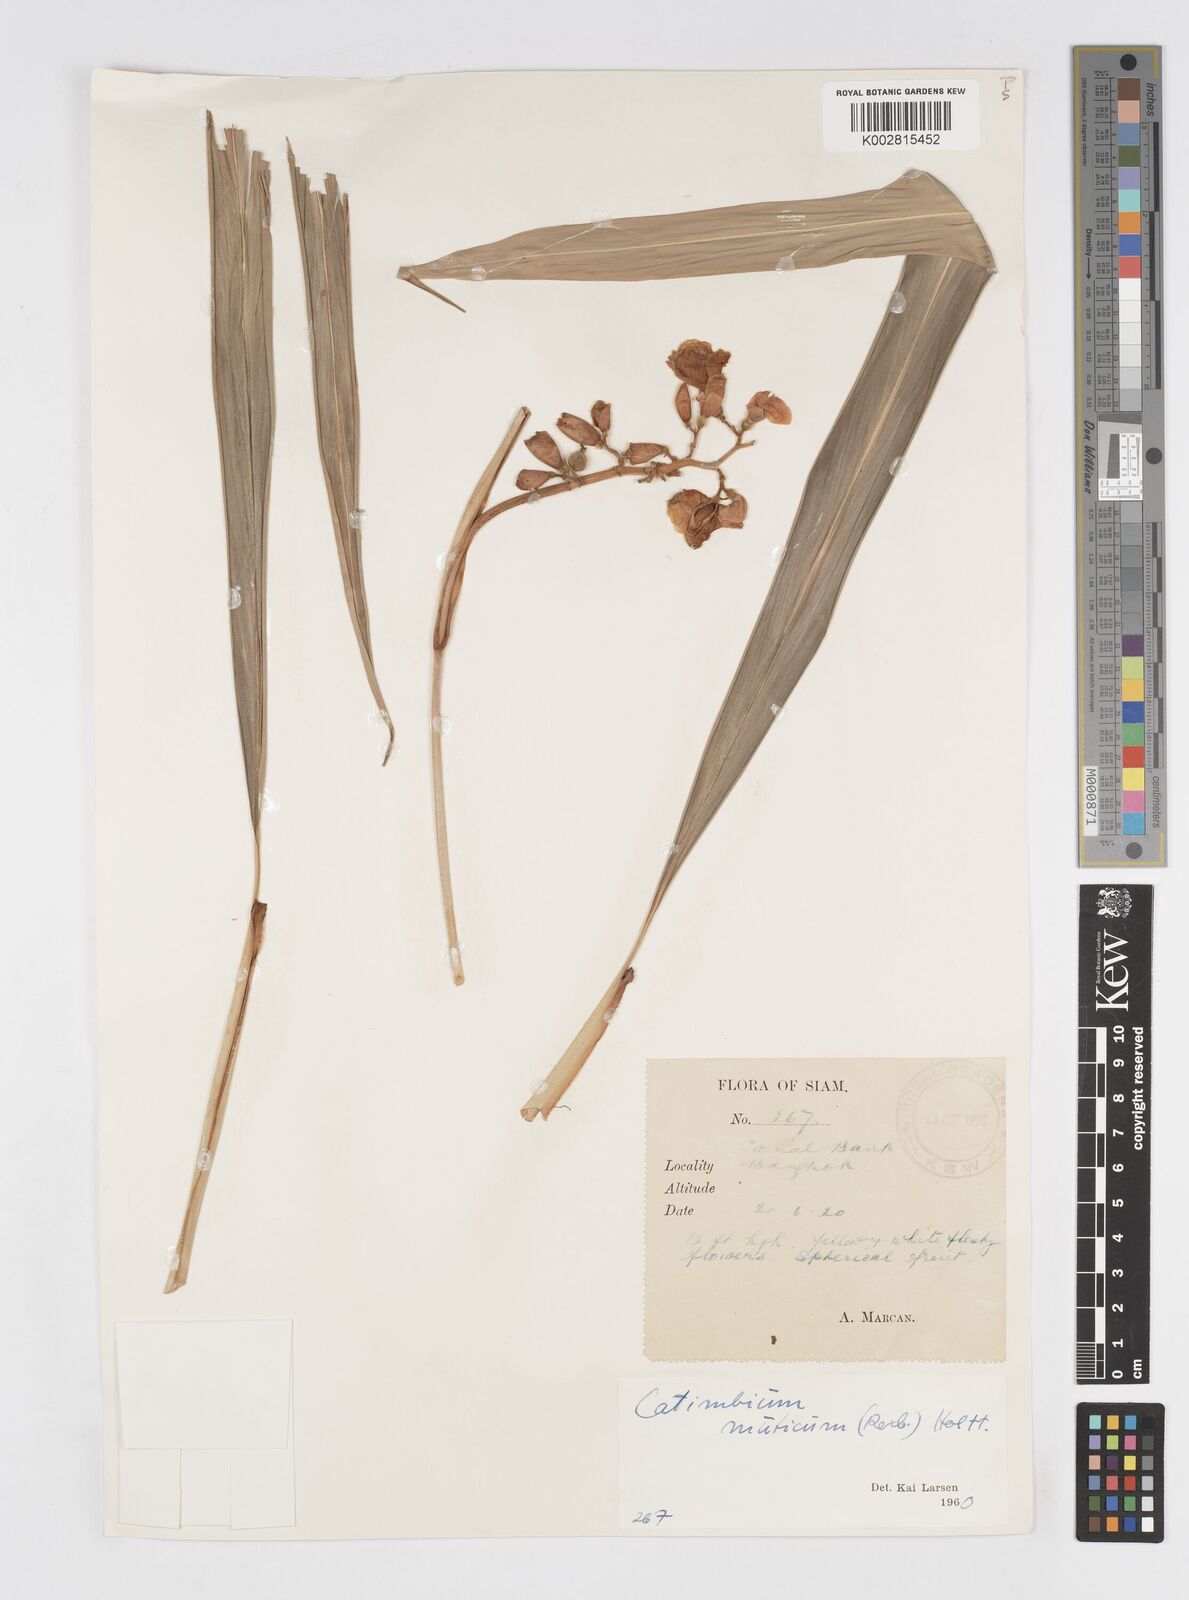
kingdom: Plantae
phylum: Tracheophyta
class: Liliopsida
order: Zingiberales
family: Zingiberaceae
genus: Alpinia
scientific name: Alpinia mutica
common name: Small shell ginger
